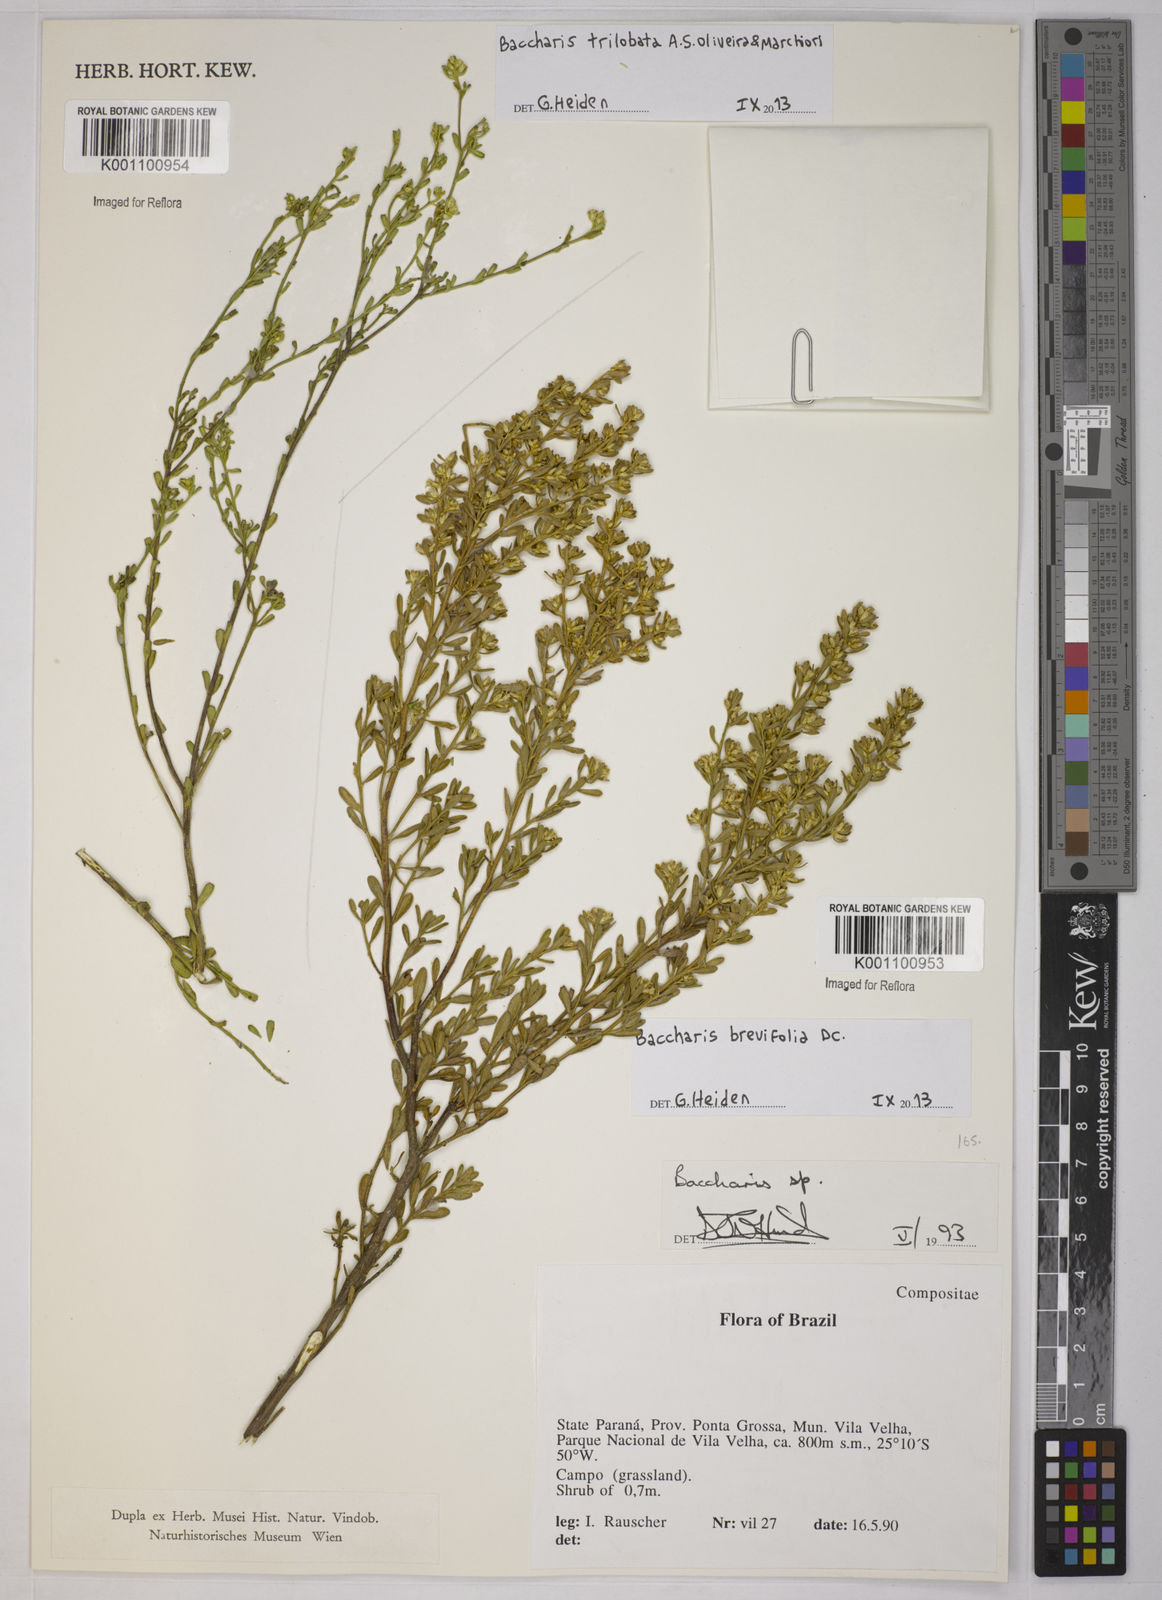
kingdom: Plantae
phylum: Tracheophyta
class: Magnoliopsida
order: Asterales
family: Asteraceae
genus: Baccharis
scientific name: Baccharis trilobata
